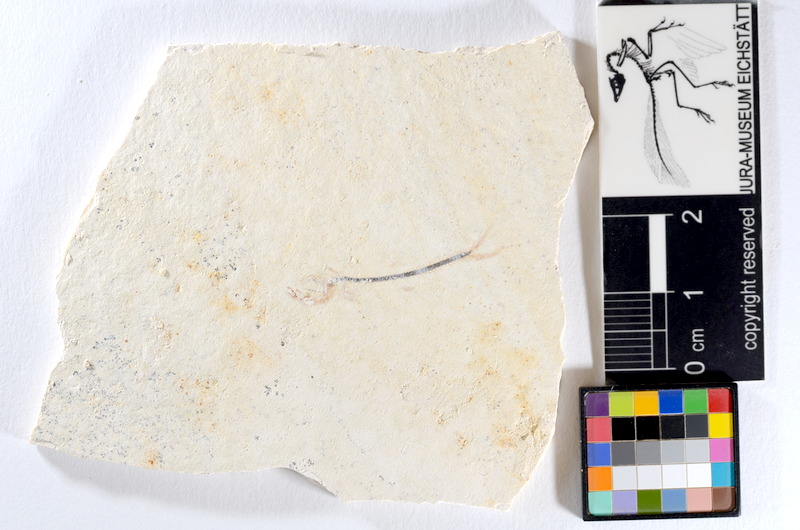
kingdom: Animalia
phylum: Chordata
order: Salmoniformes
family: Orthogonikleithridae
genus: Orthogonikleithrus
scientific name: Orthogonikleithrus hoelli
